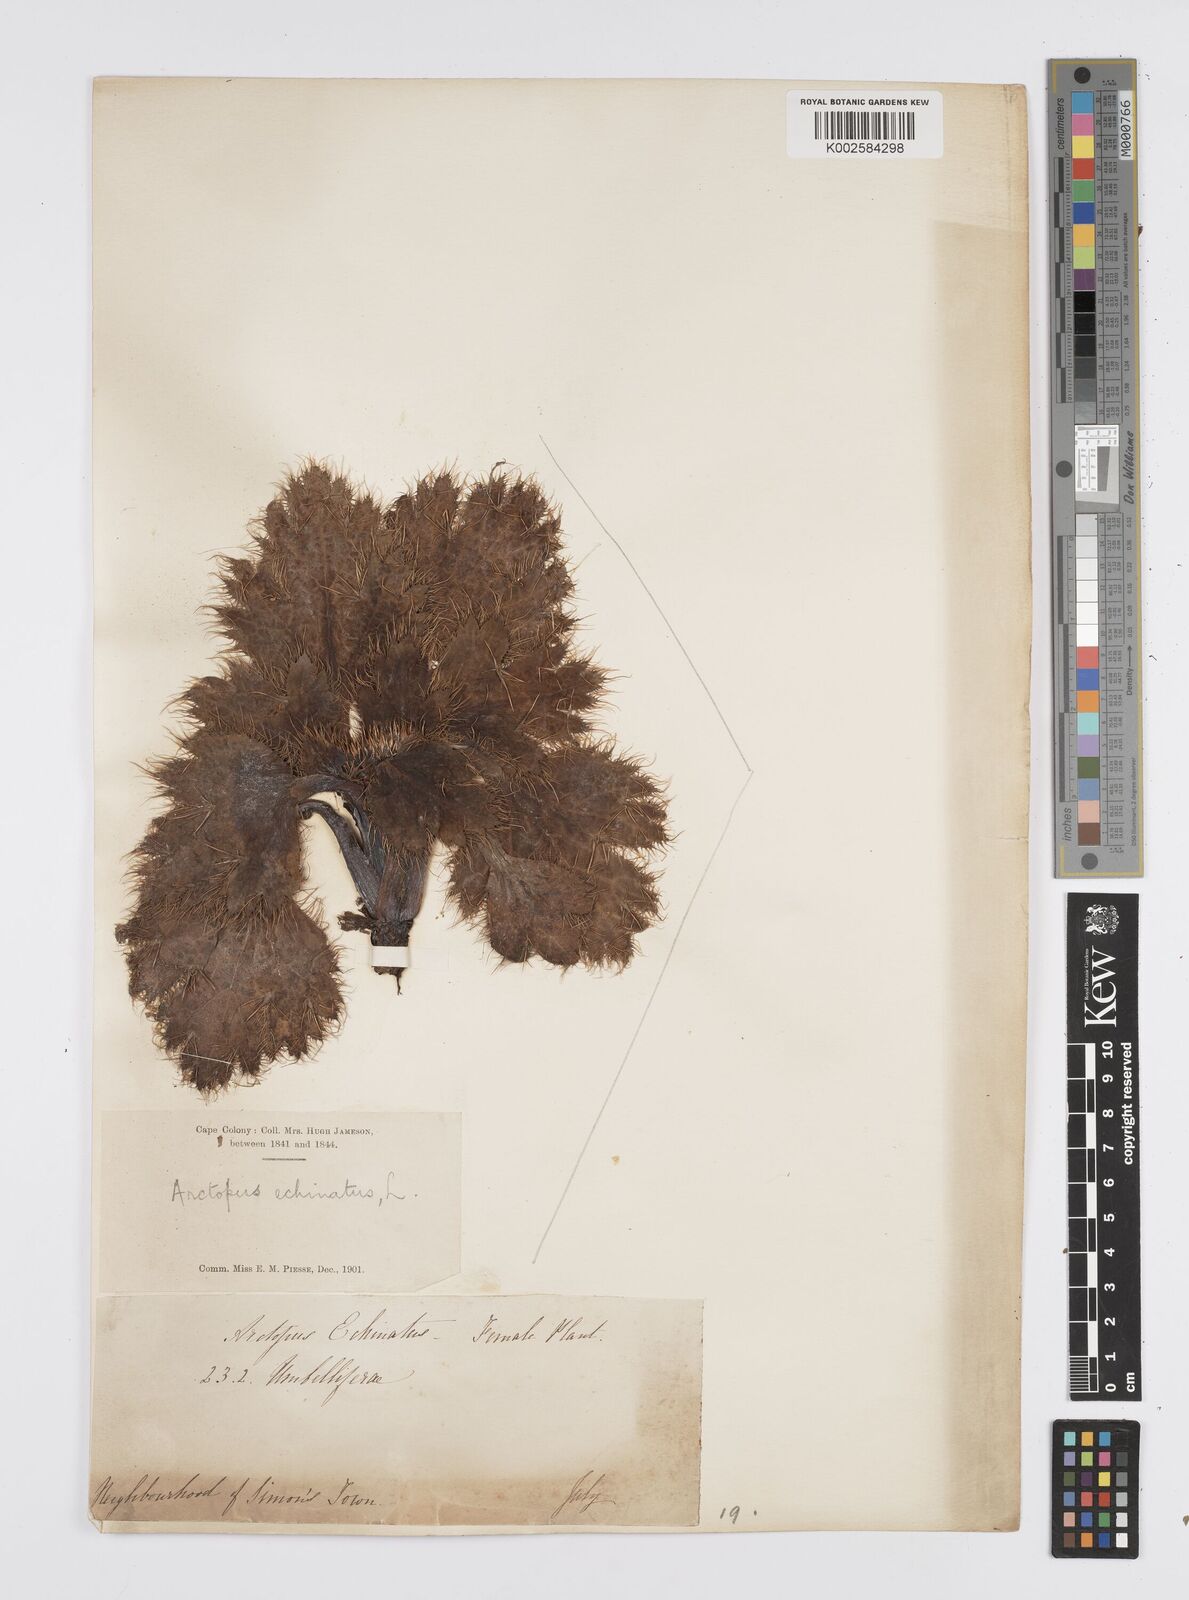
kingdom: Plantae
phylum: Tracheophyta
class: Magnoliopsida
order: Apiales
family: Apiaceae
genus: Arctopus
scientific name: Arctopus echinatus
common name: Platdoring
